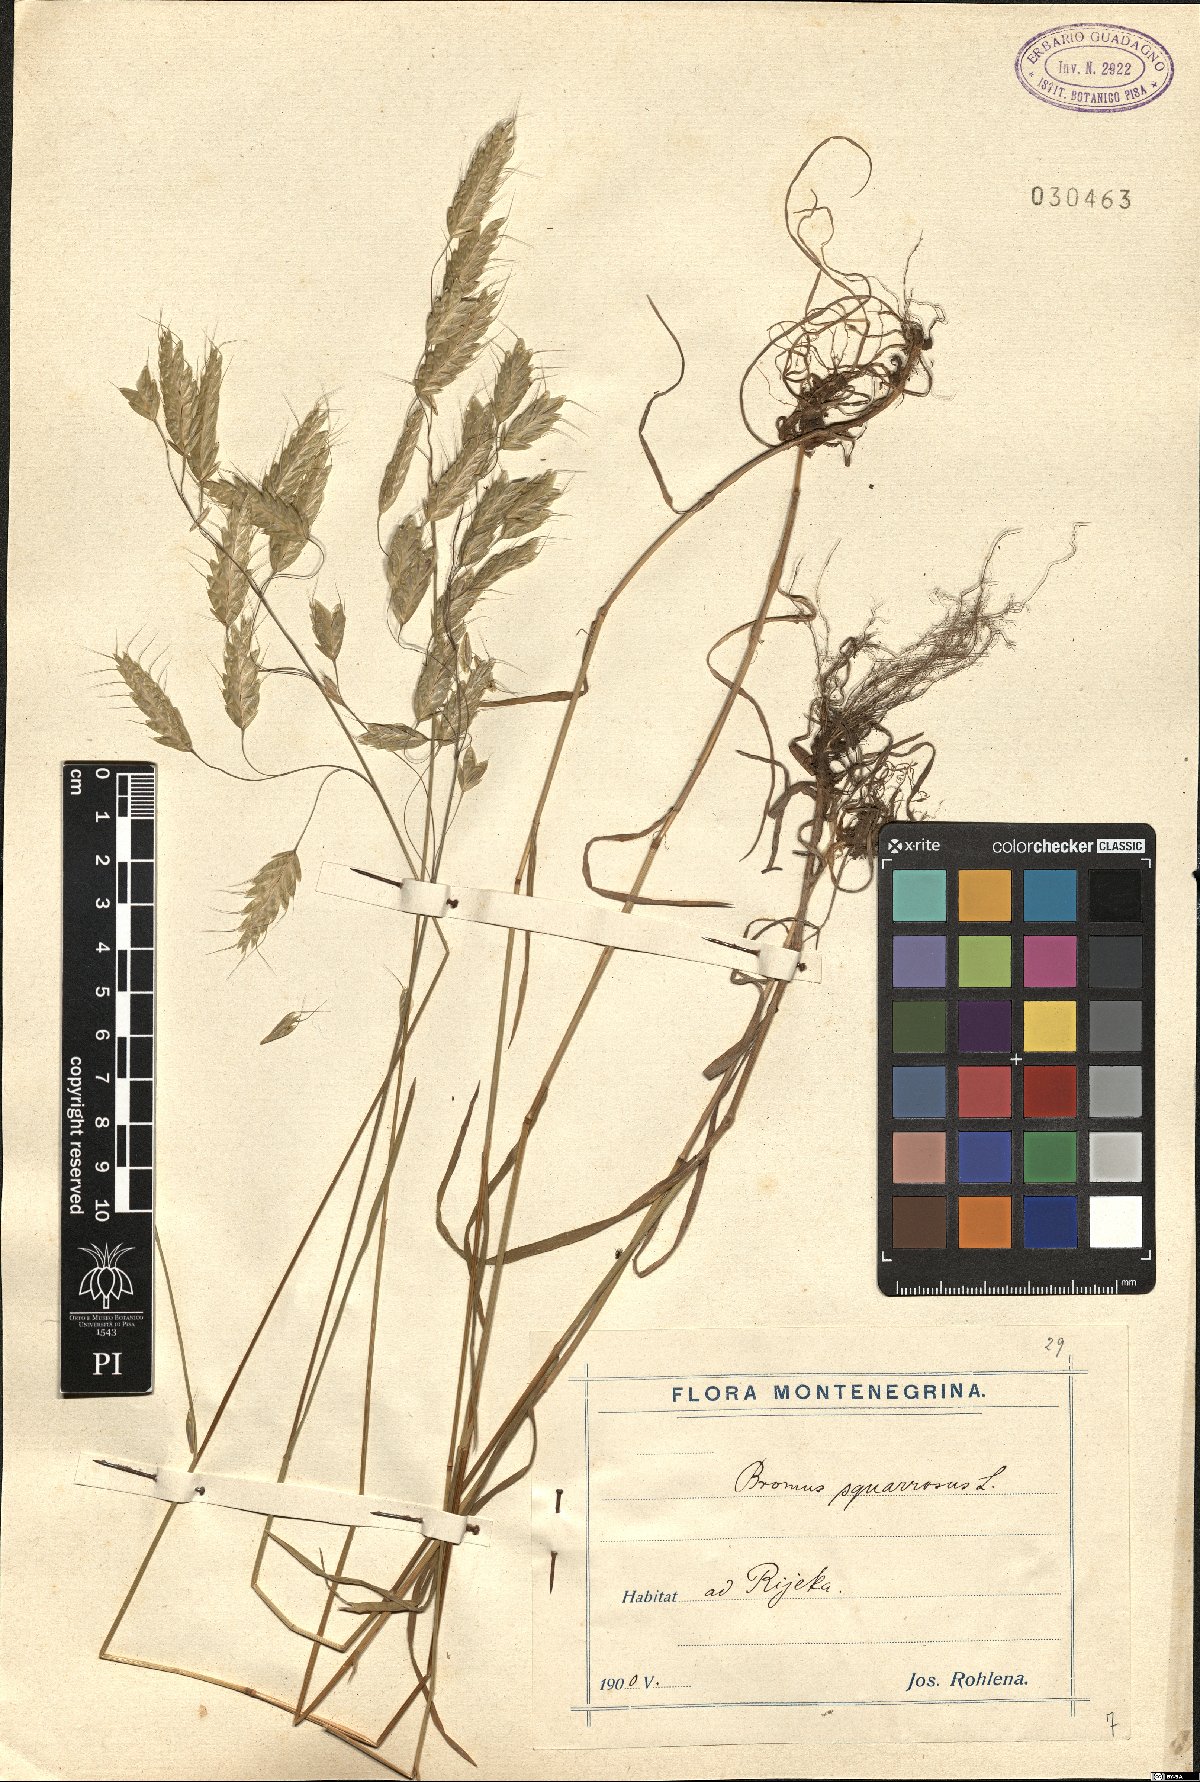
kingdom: Plantae
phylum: Tracheophyta
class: Liliopsida
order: Poales
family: Poaceae
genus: Bromus
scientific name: Bromus squarrosus
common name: Corn brome
